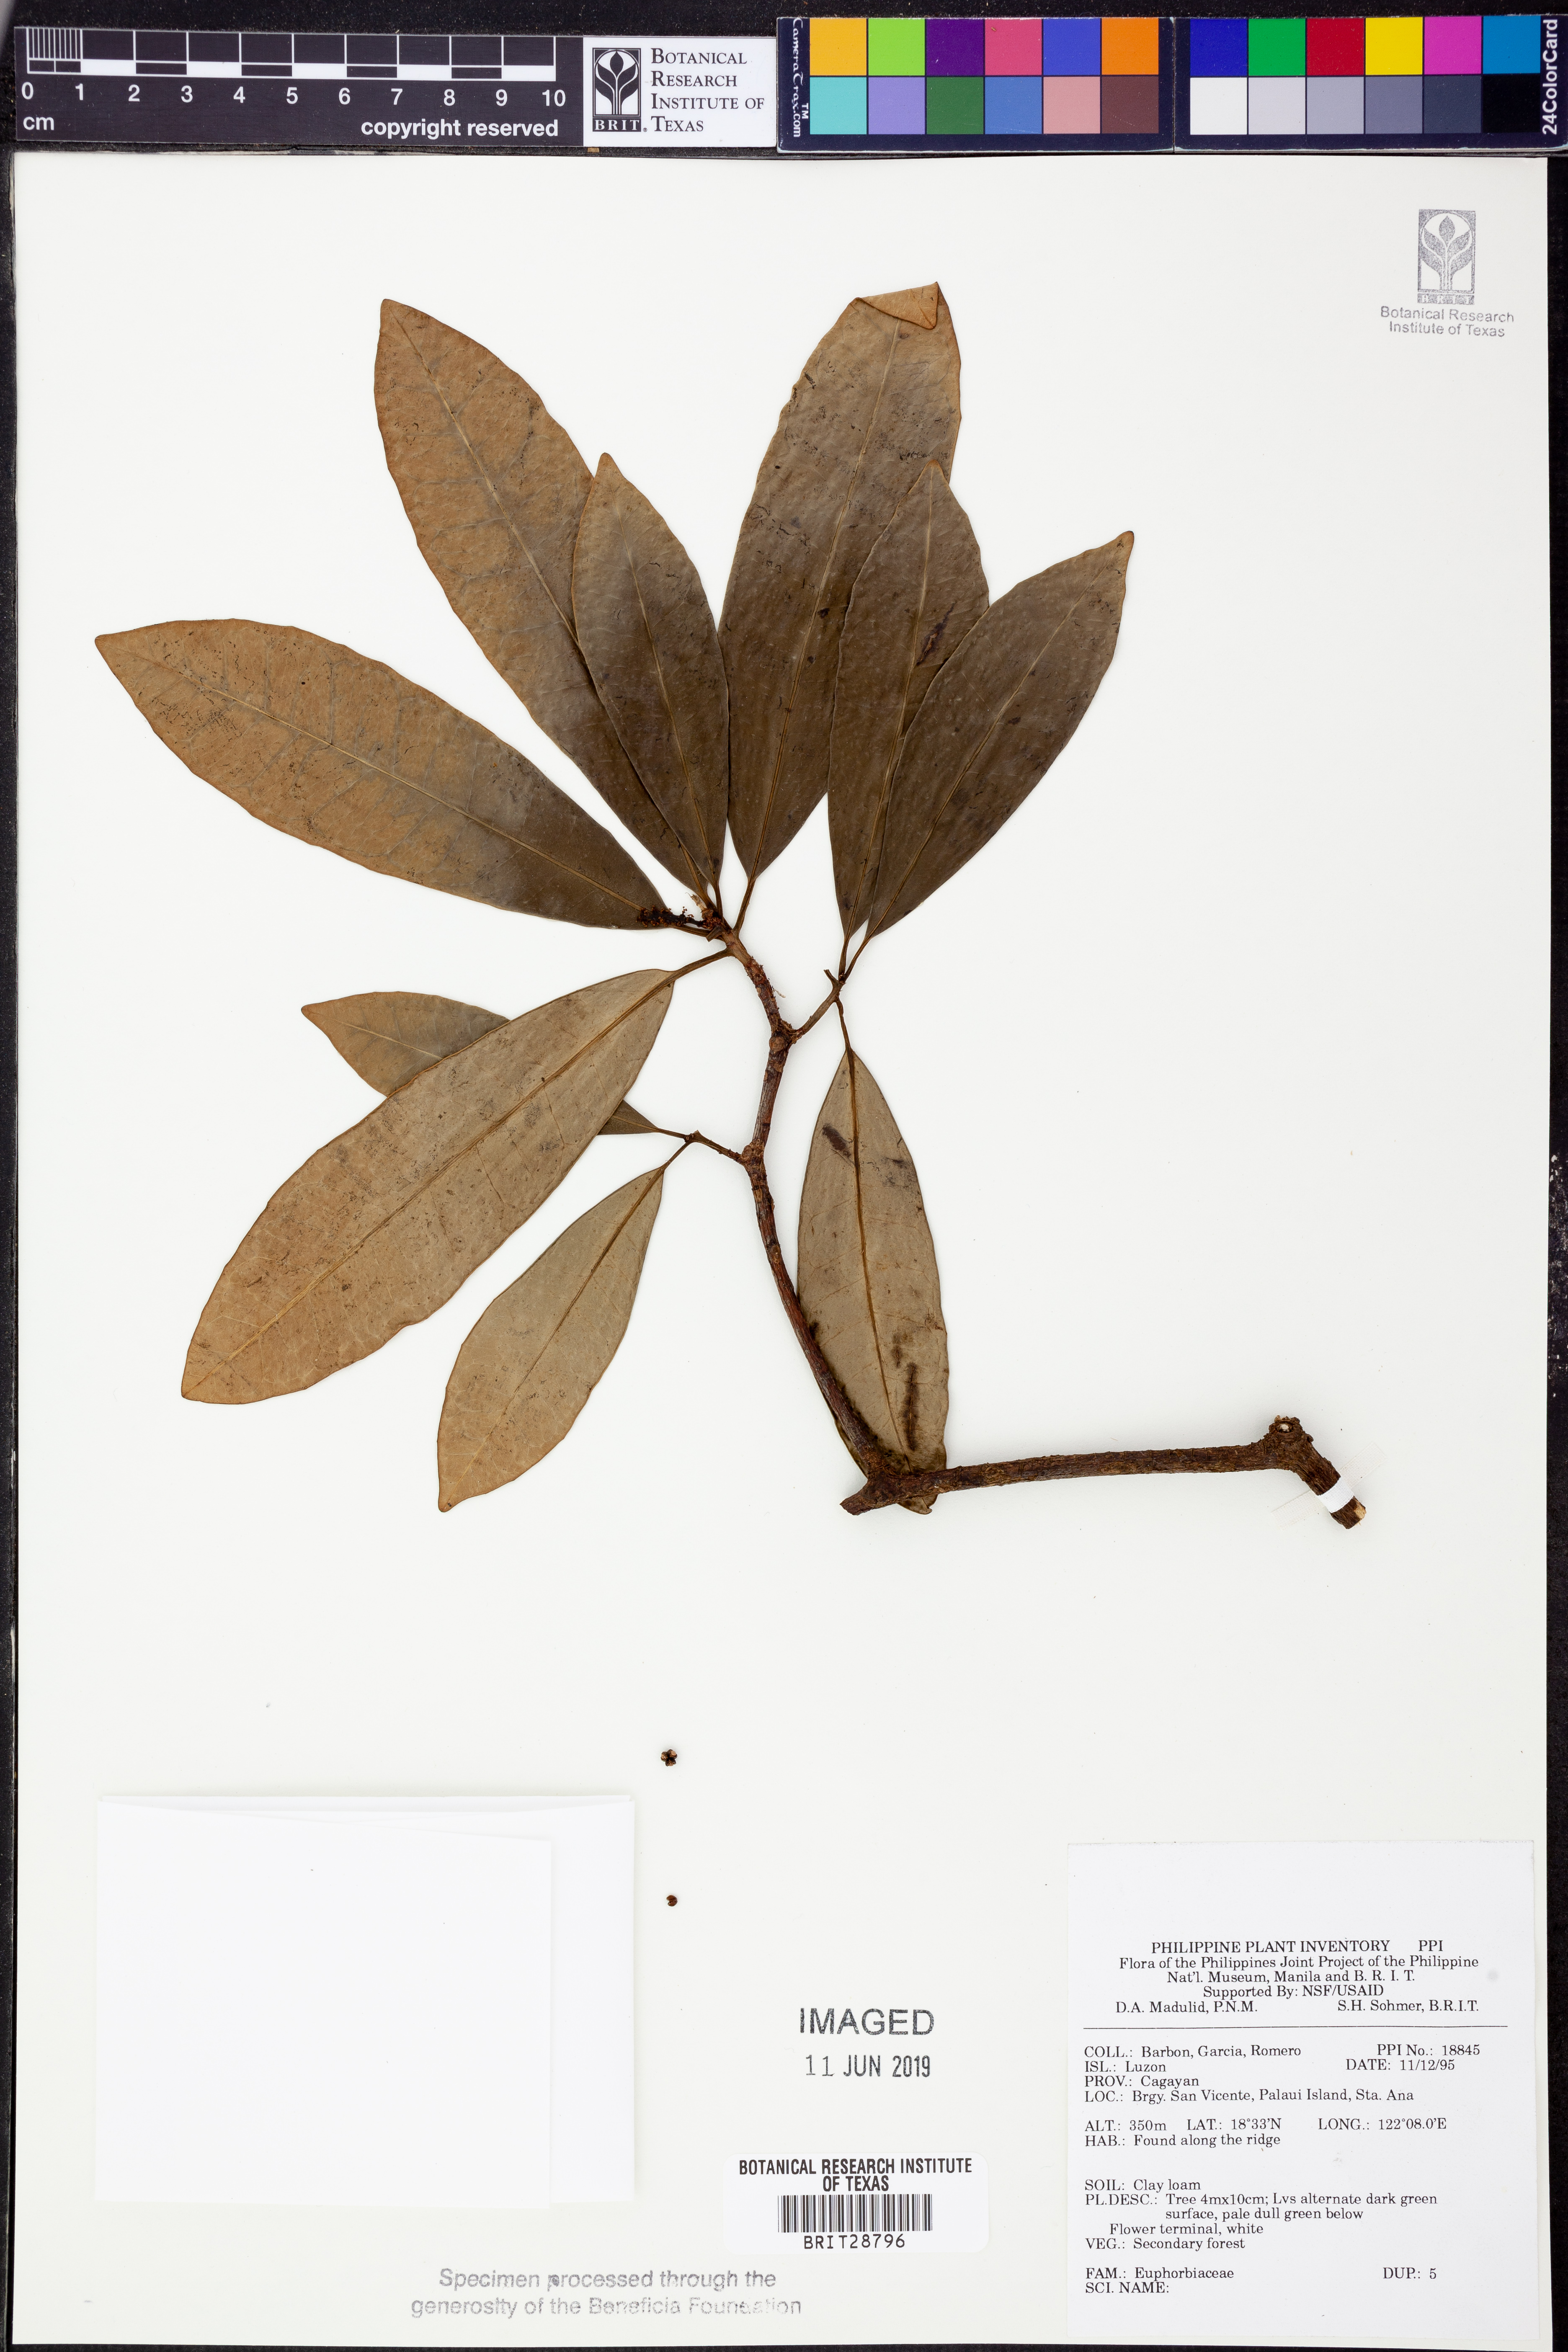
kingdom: Plantae
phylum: Tracheophyta
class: Magnoliopsida
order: Malpighiales
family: Euphorbiaceae
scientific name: Euphorbiaceae
